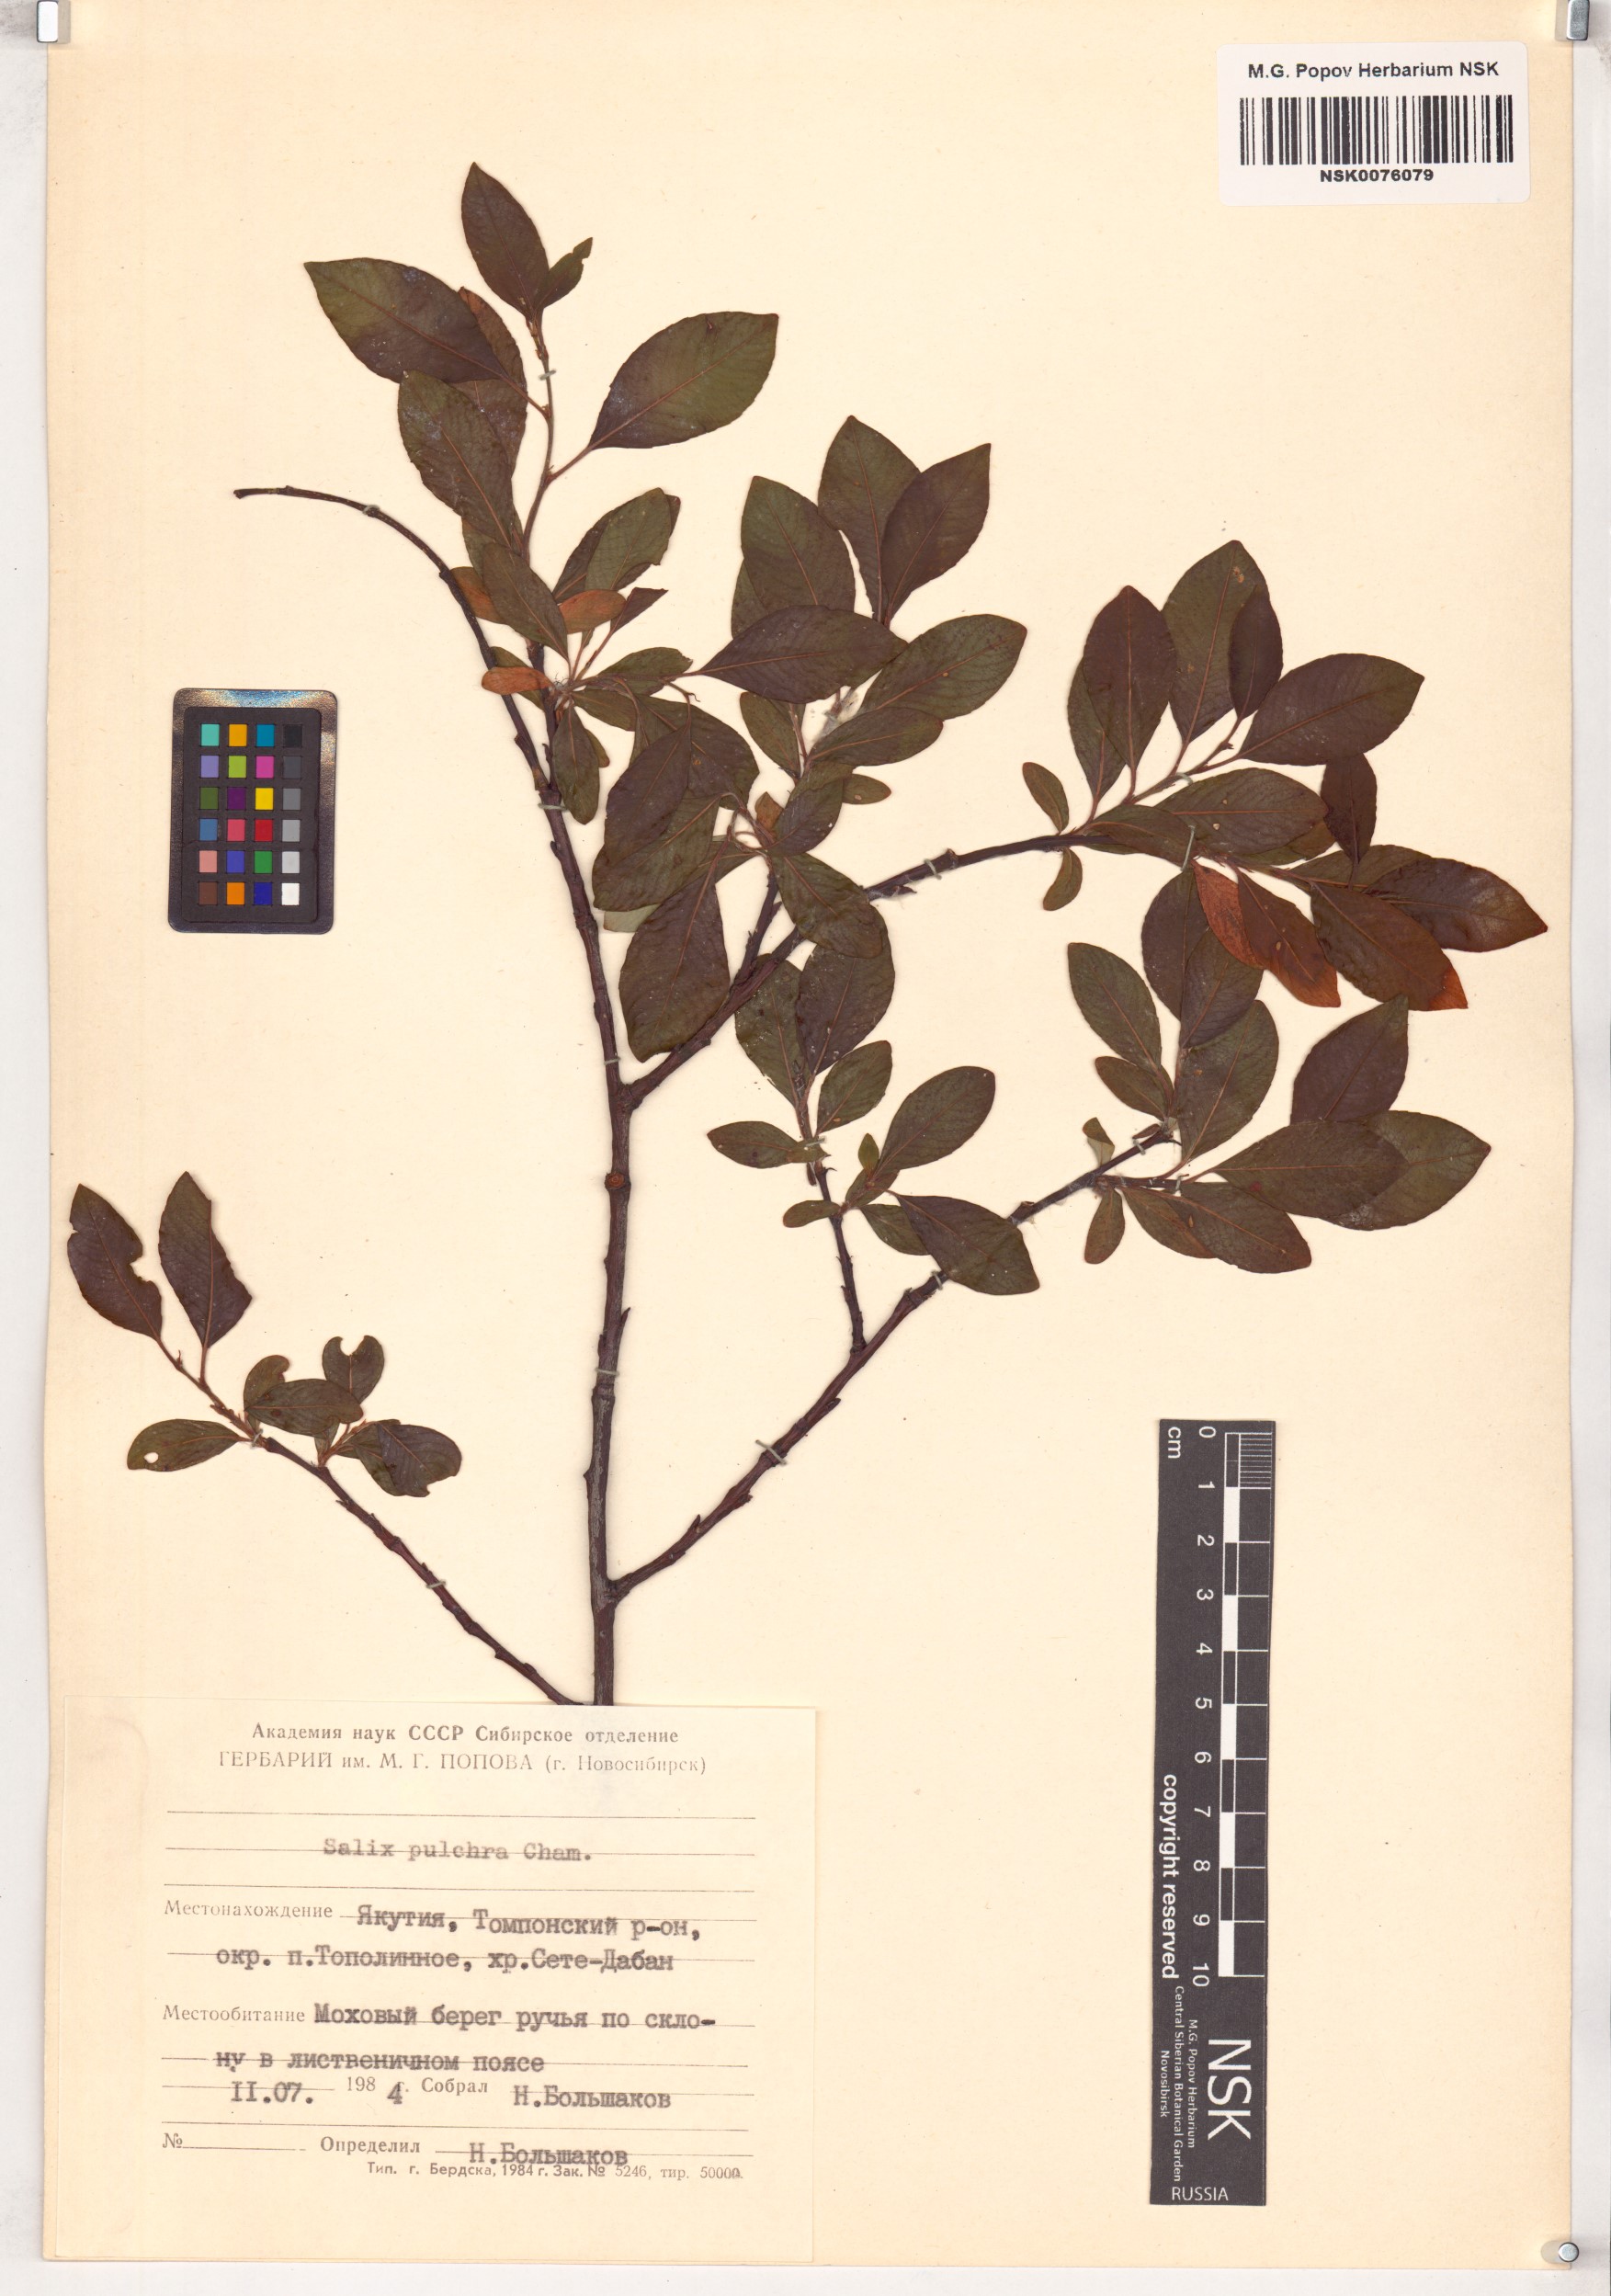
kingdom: Plantae
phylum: Tracheophyta
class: Magnoliopsida
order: Malpighiales
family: Salicaceae
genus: Salix
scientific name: Salix pulchra
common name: Diamond-leaved willow
